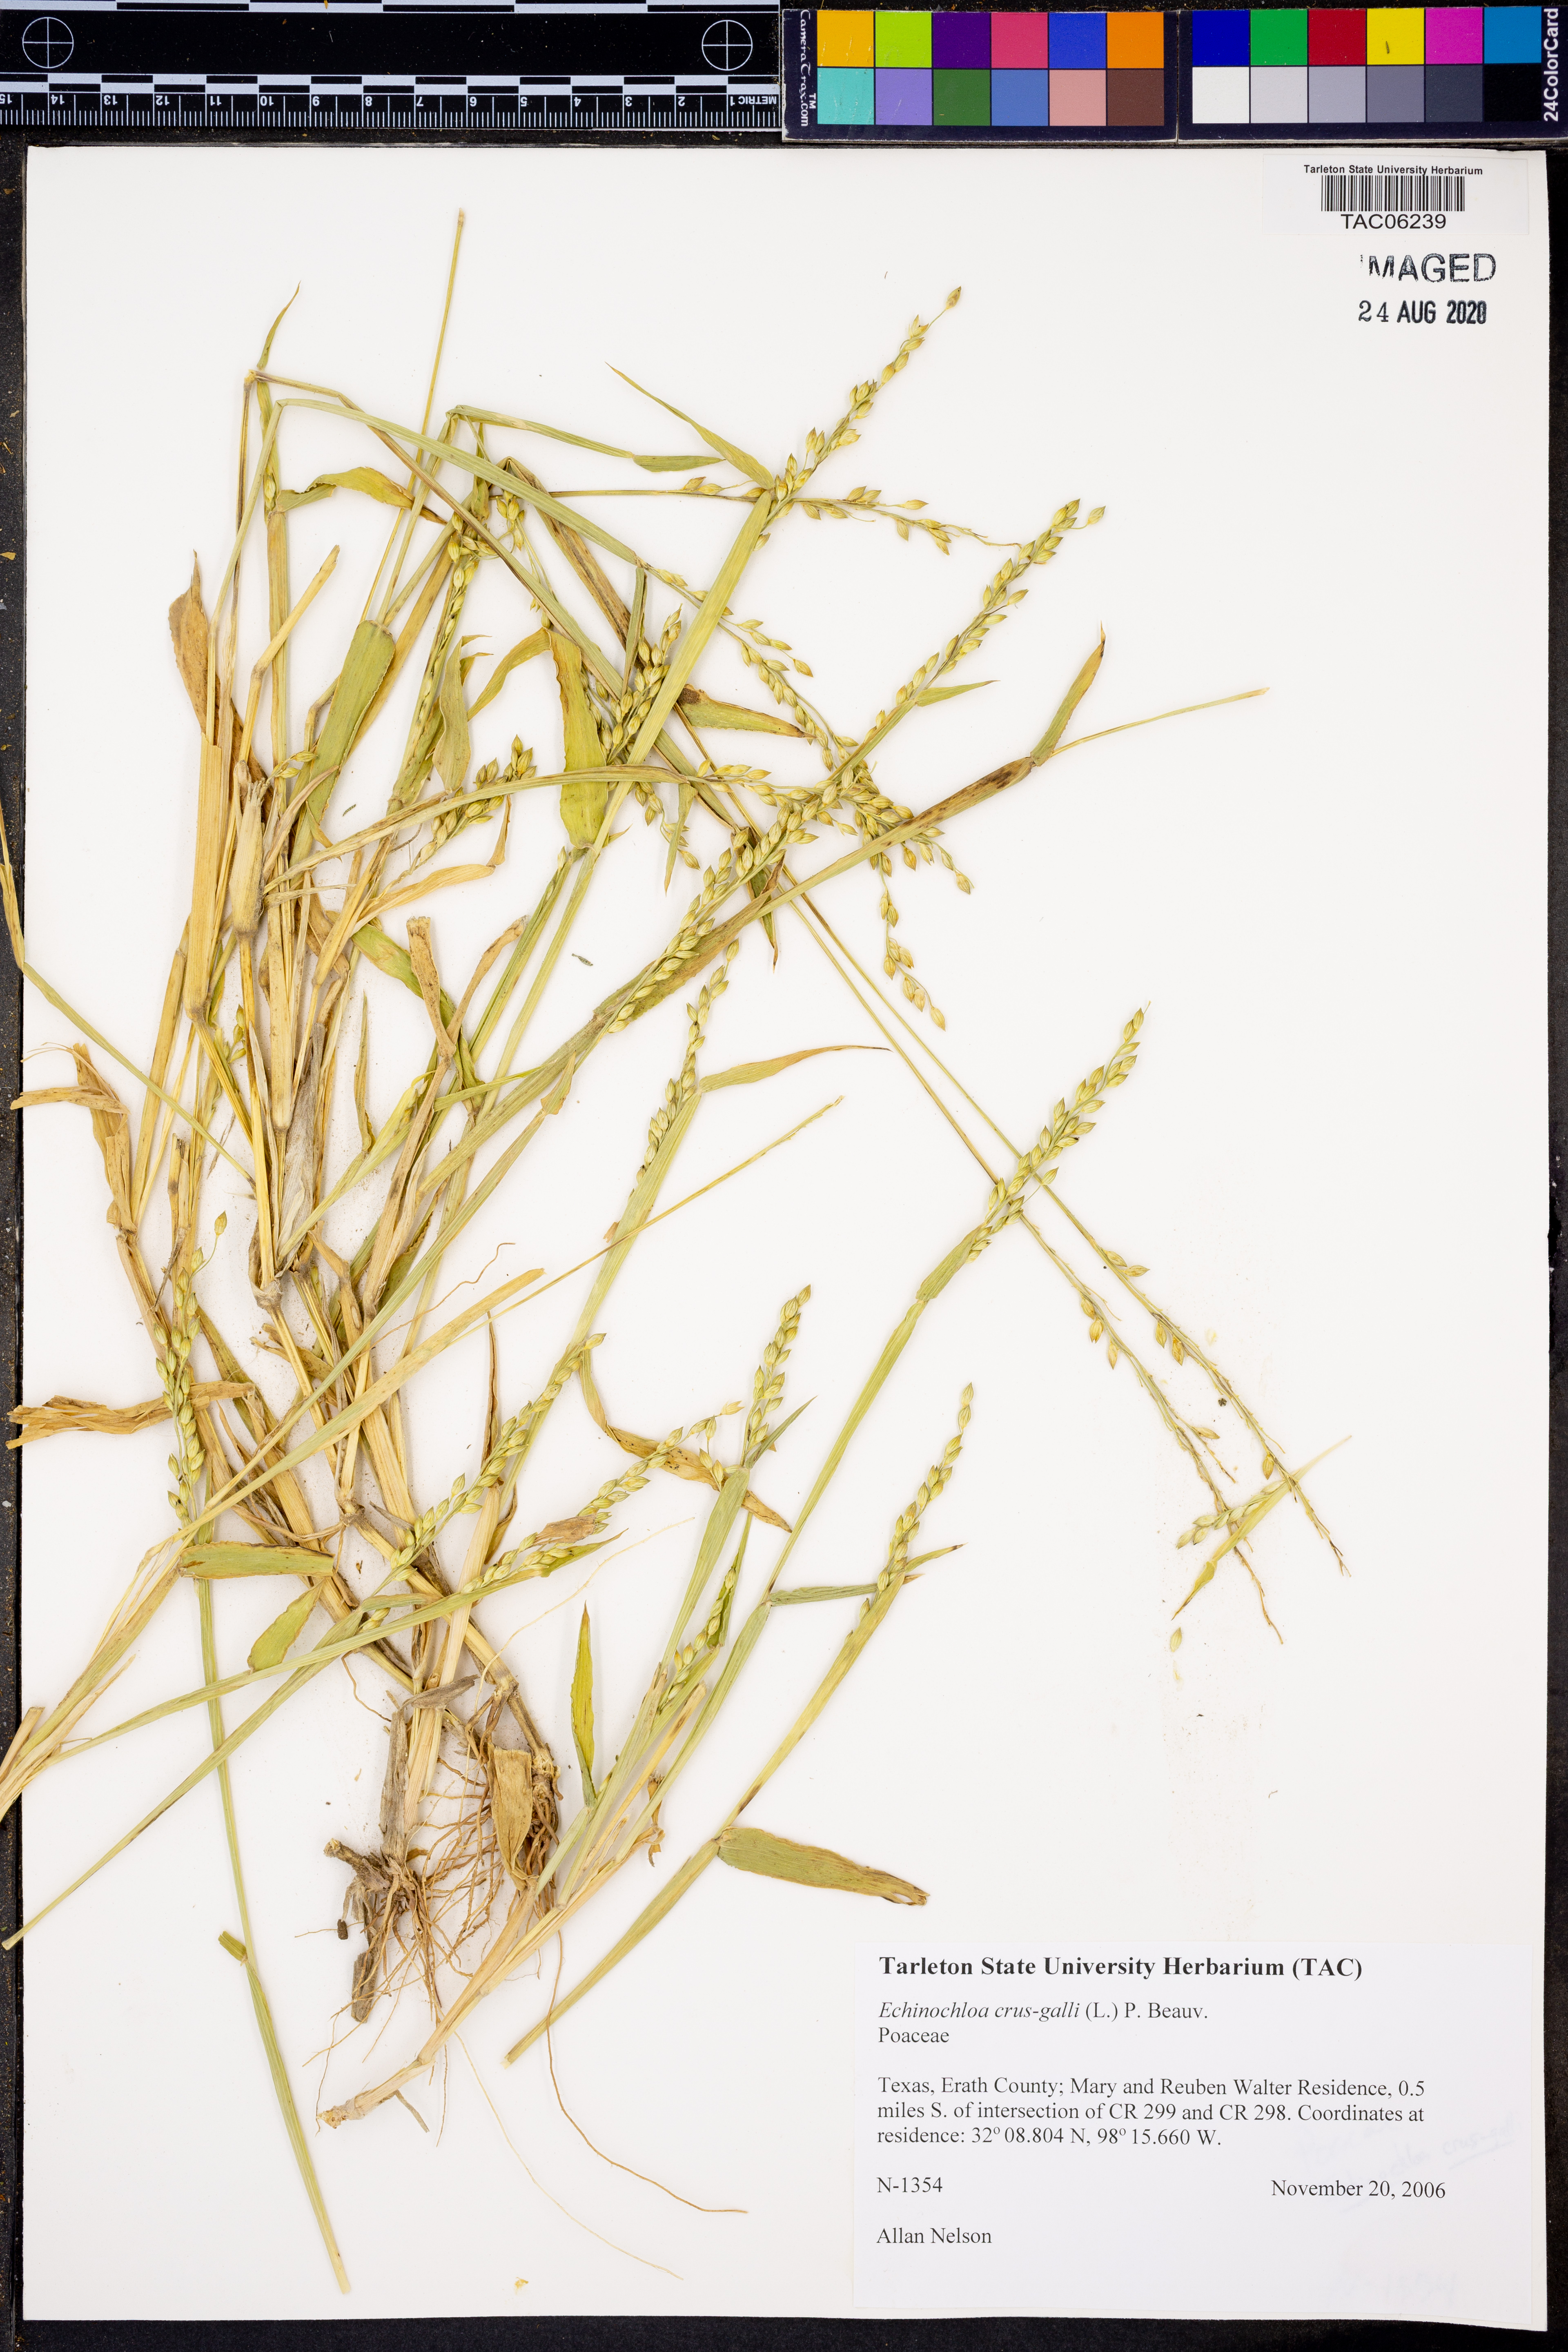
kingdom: Plantae
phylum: Tracheophyta
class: Liliopsida
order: Poales
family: Poaceae
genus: Echinochloa
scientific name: Echinochloa crus-galli
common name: Cockspur
